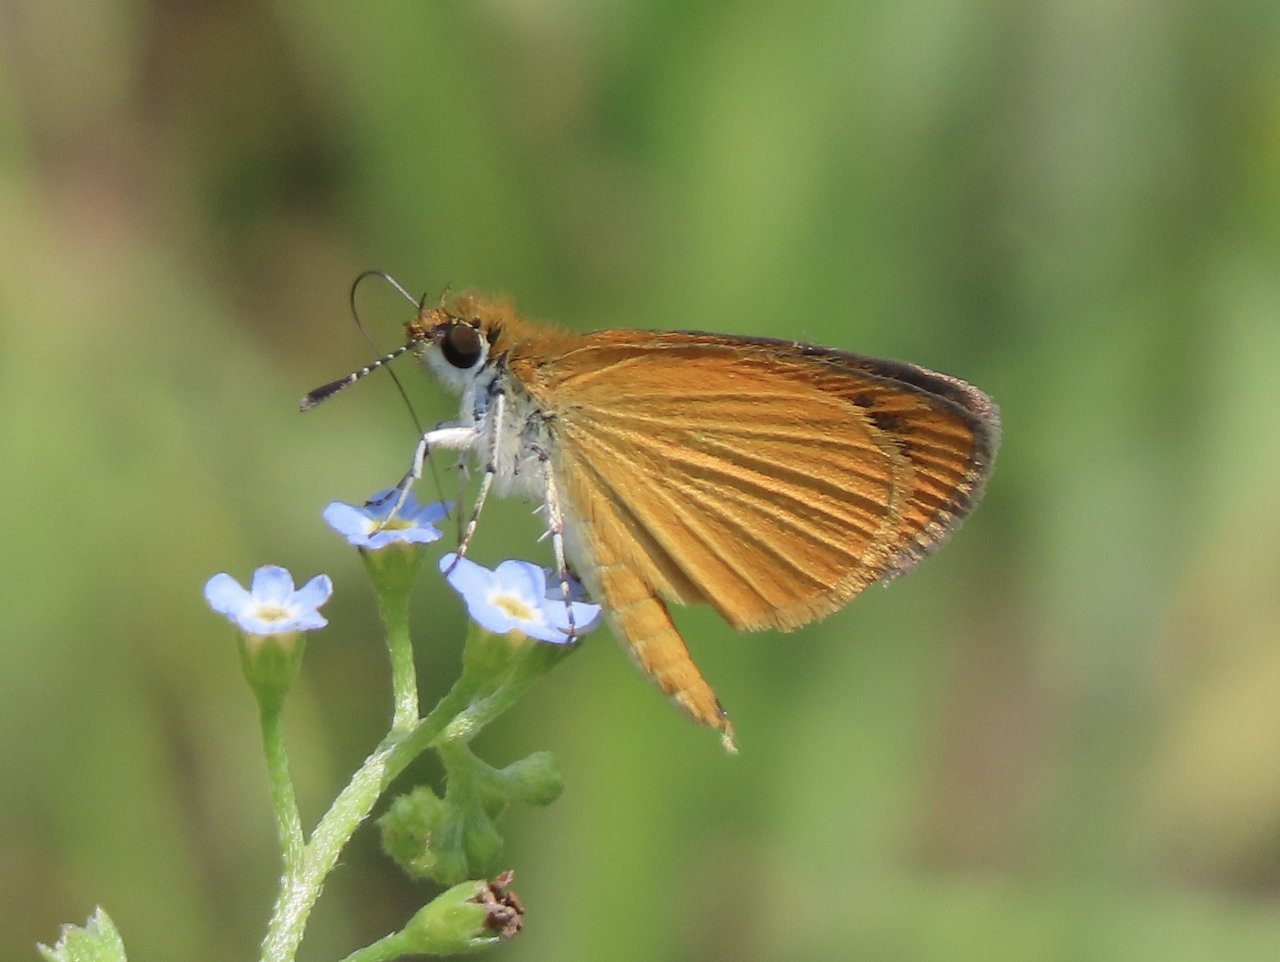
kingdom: Animalia
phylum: Arthropoda
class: Insecta
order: Lepidoptera
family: Hesperiidae
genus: Ancyloxypha
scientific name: Ancyloxypha numitor
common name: Least Skipper
